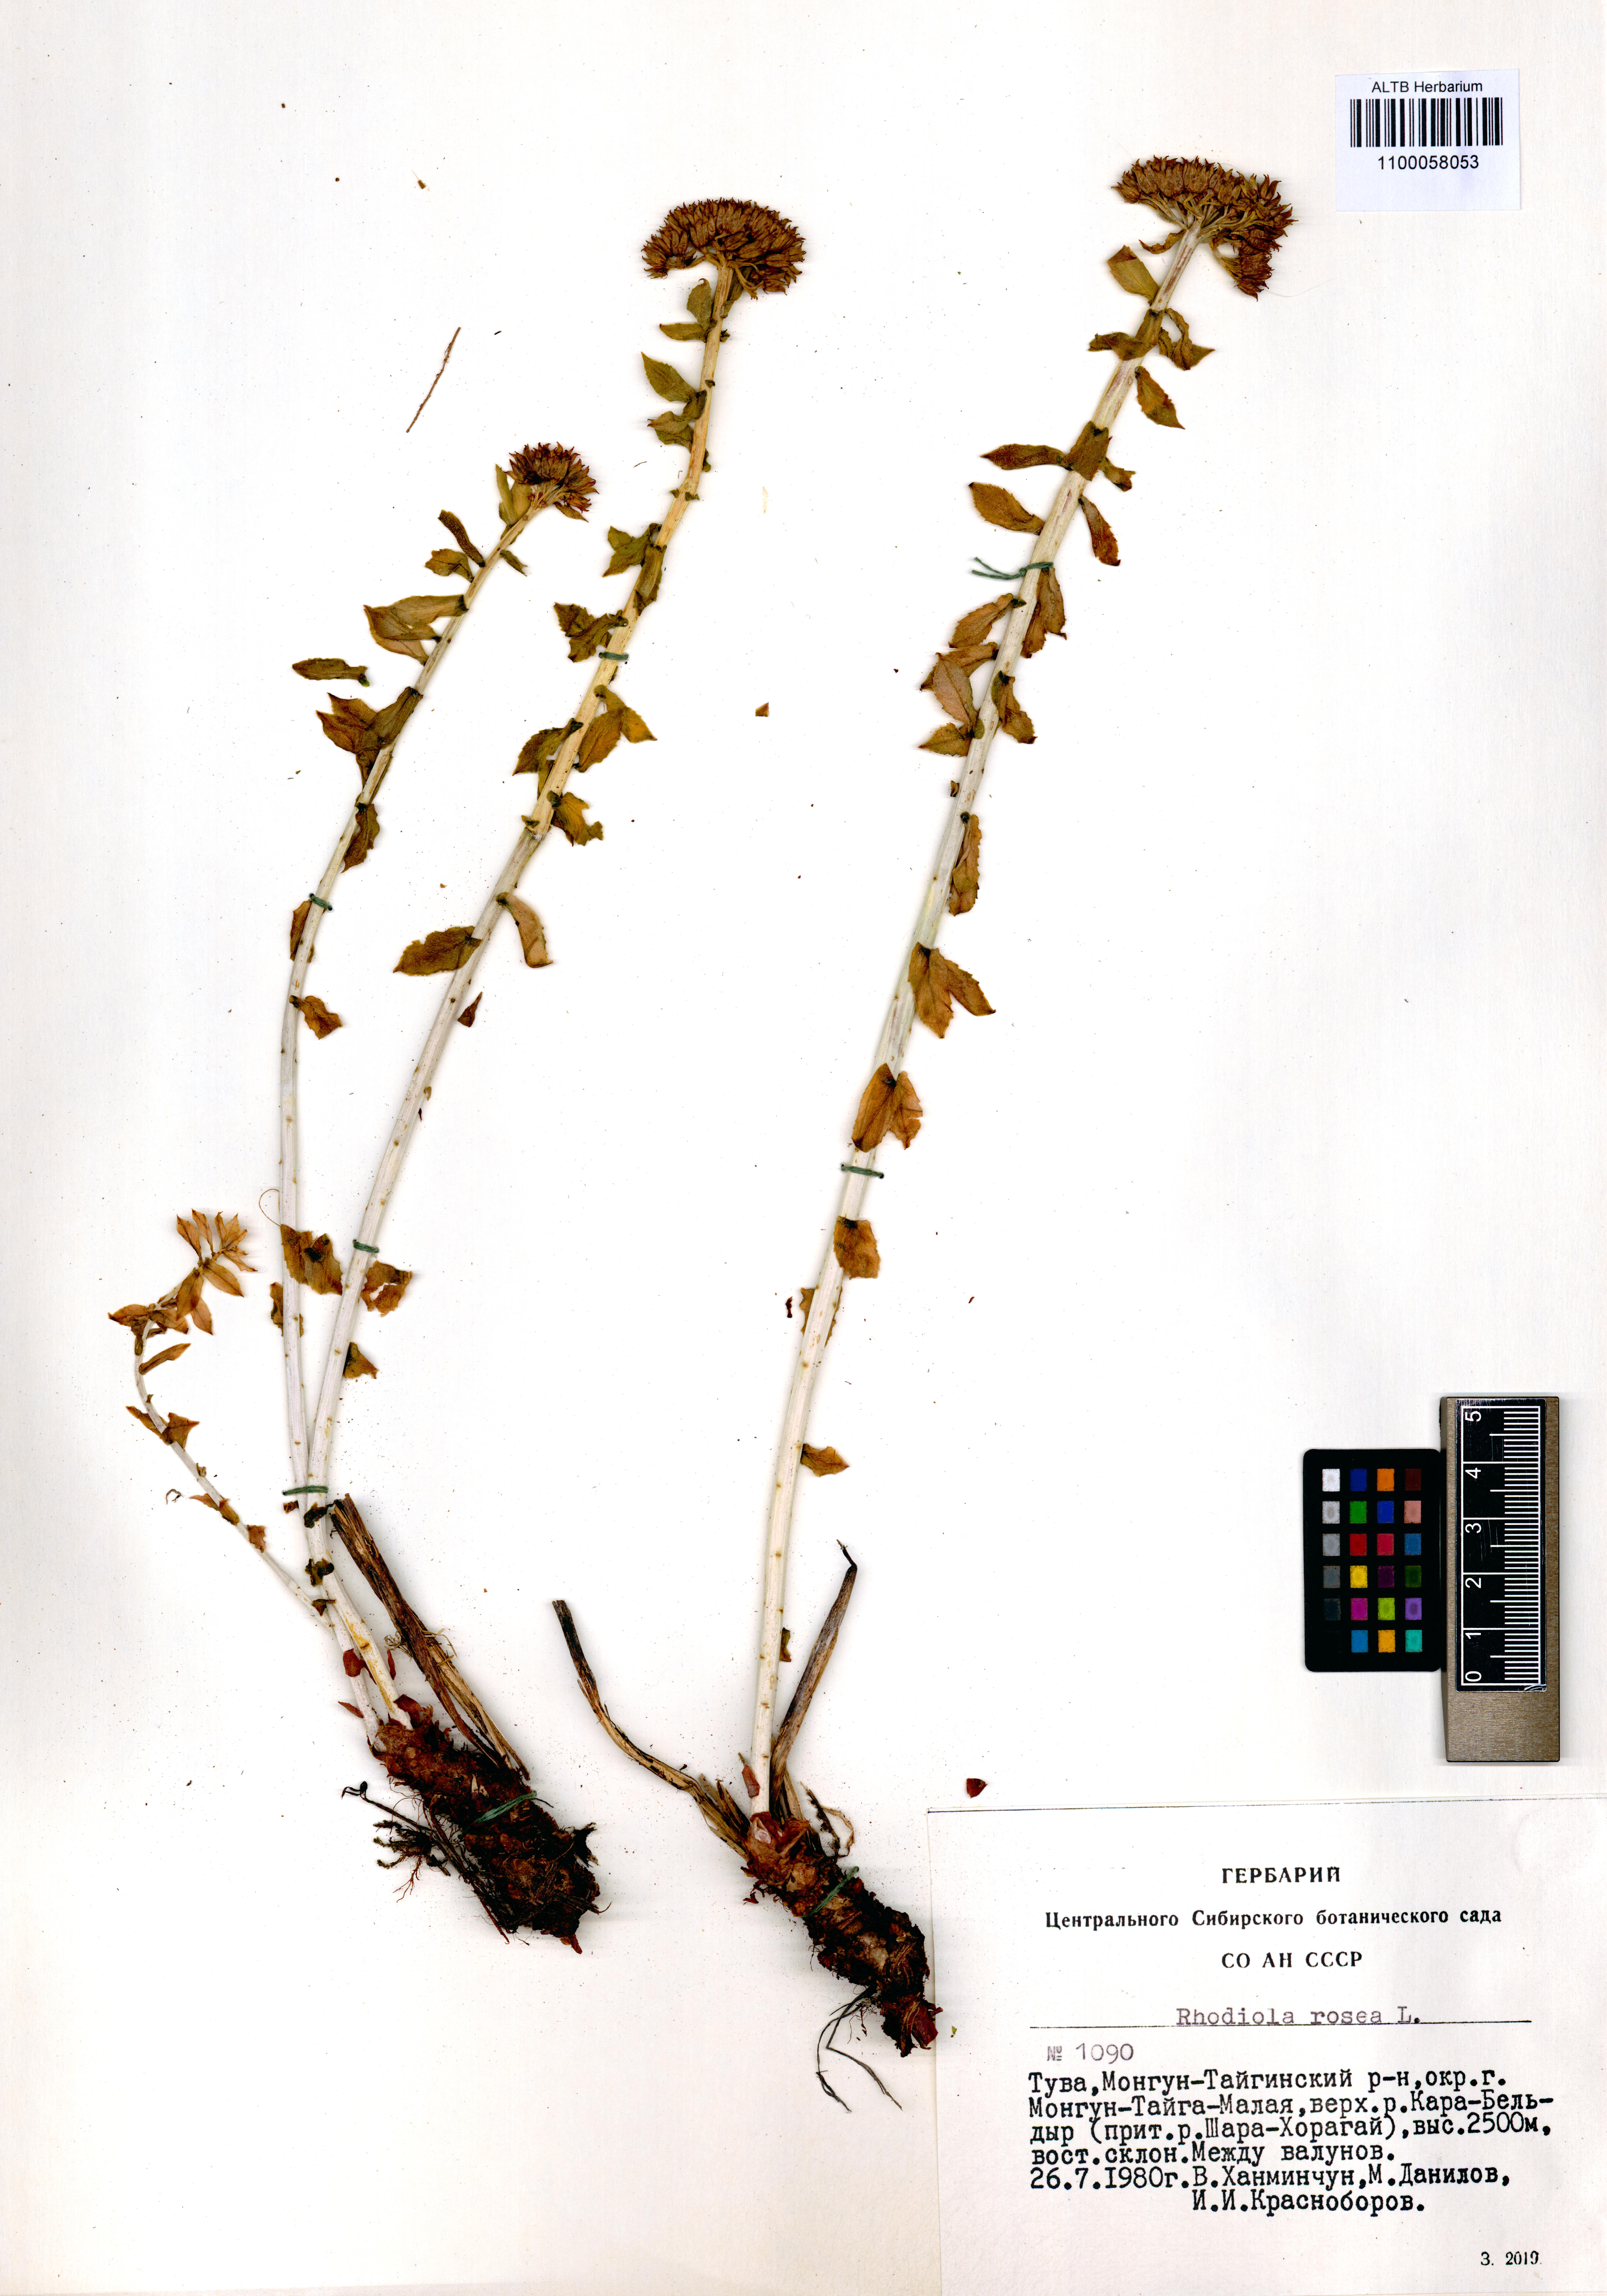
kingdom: Plantae
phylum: Tracheophyta
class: Magnoliopsida
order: Saxifragales
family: Crassulaceae
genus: Rhodiola
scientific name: Rhodiola rosea
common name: Roseroot
